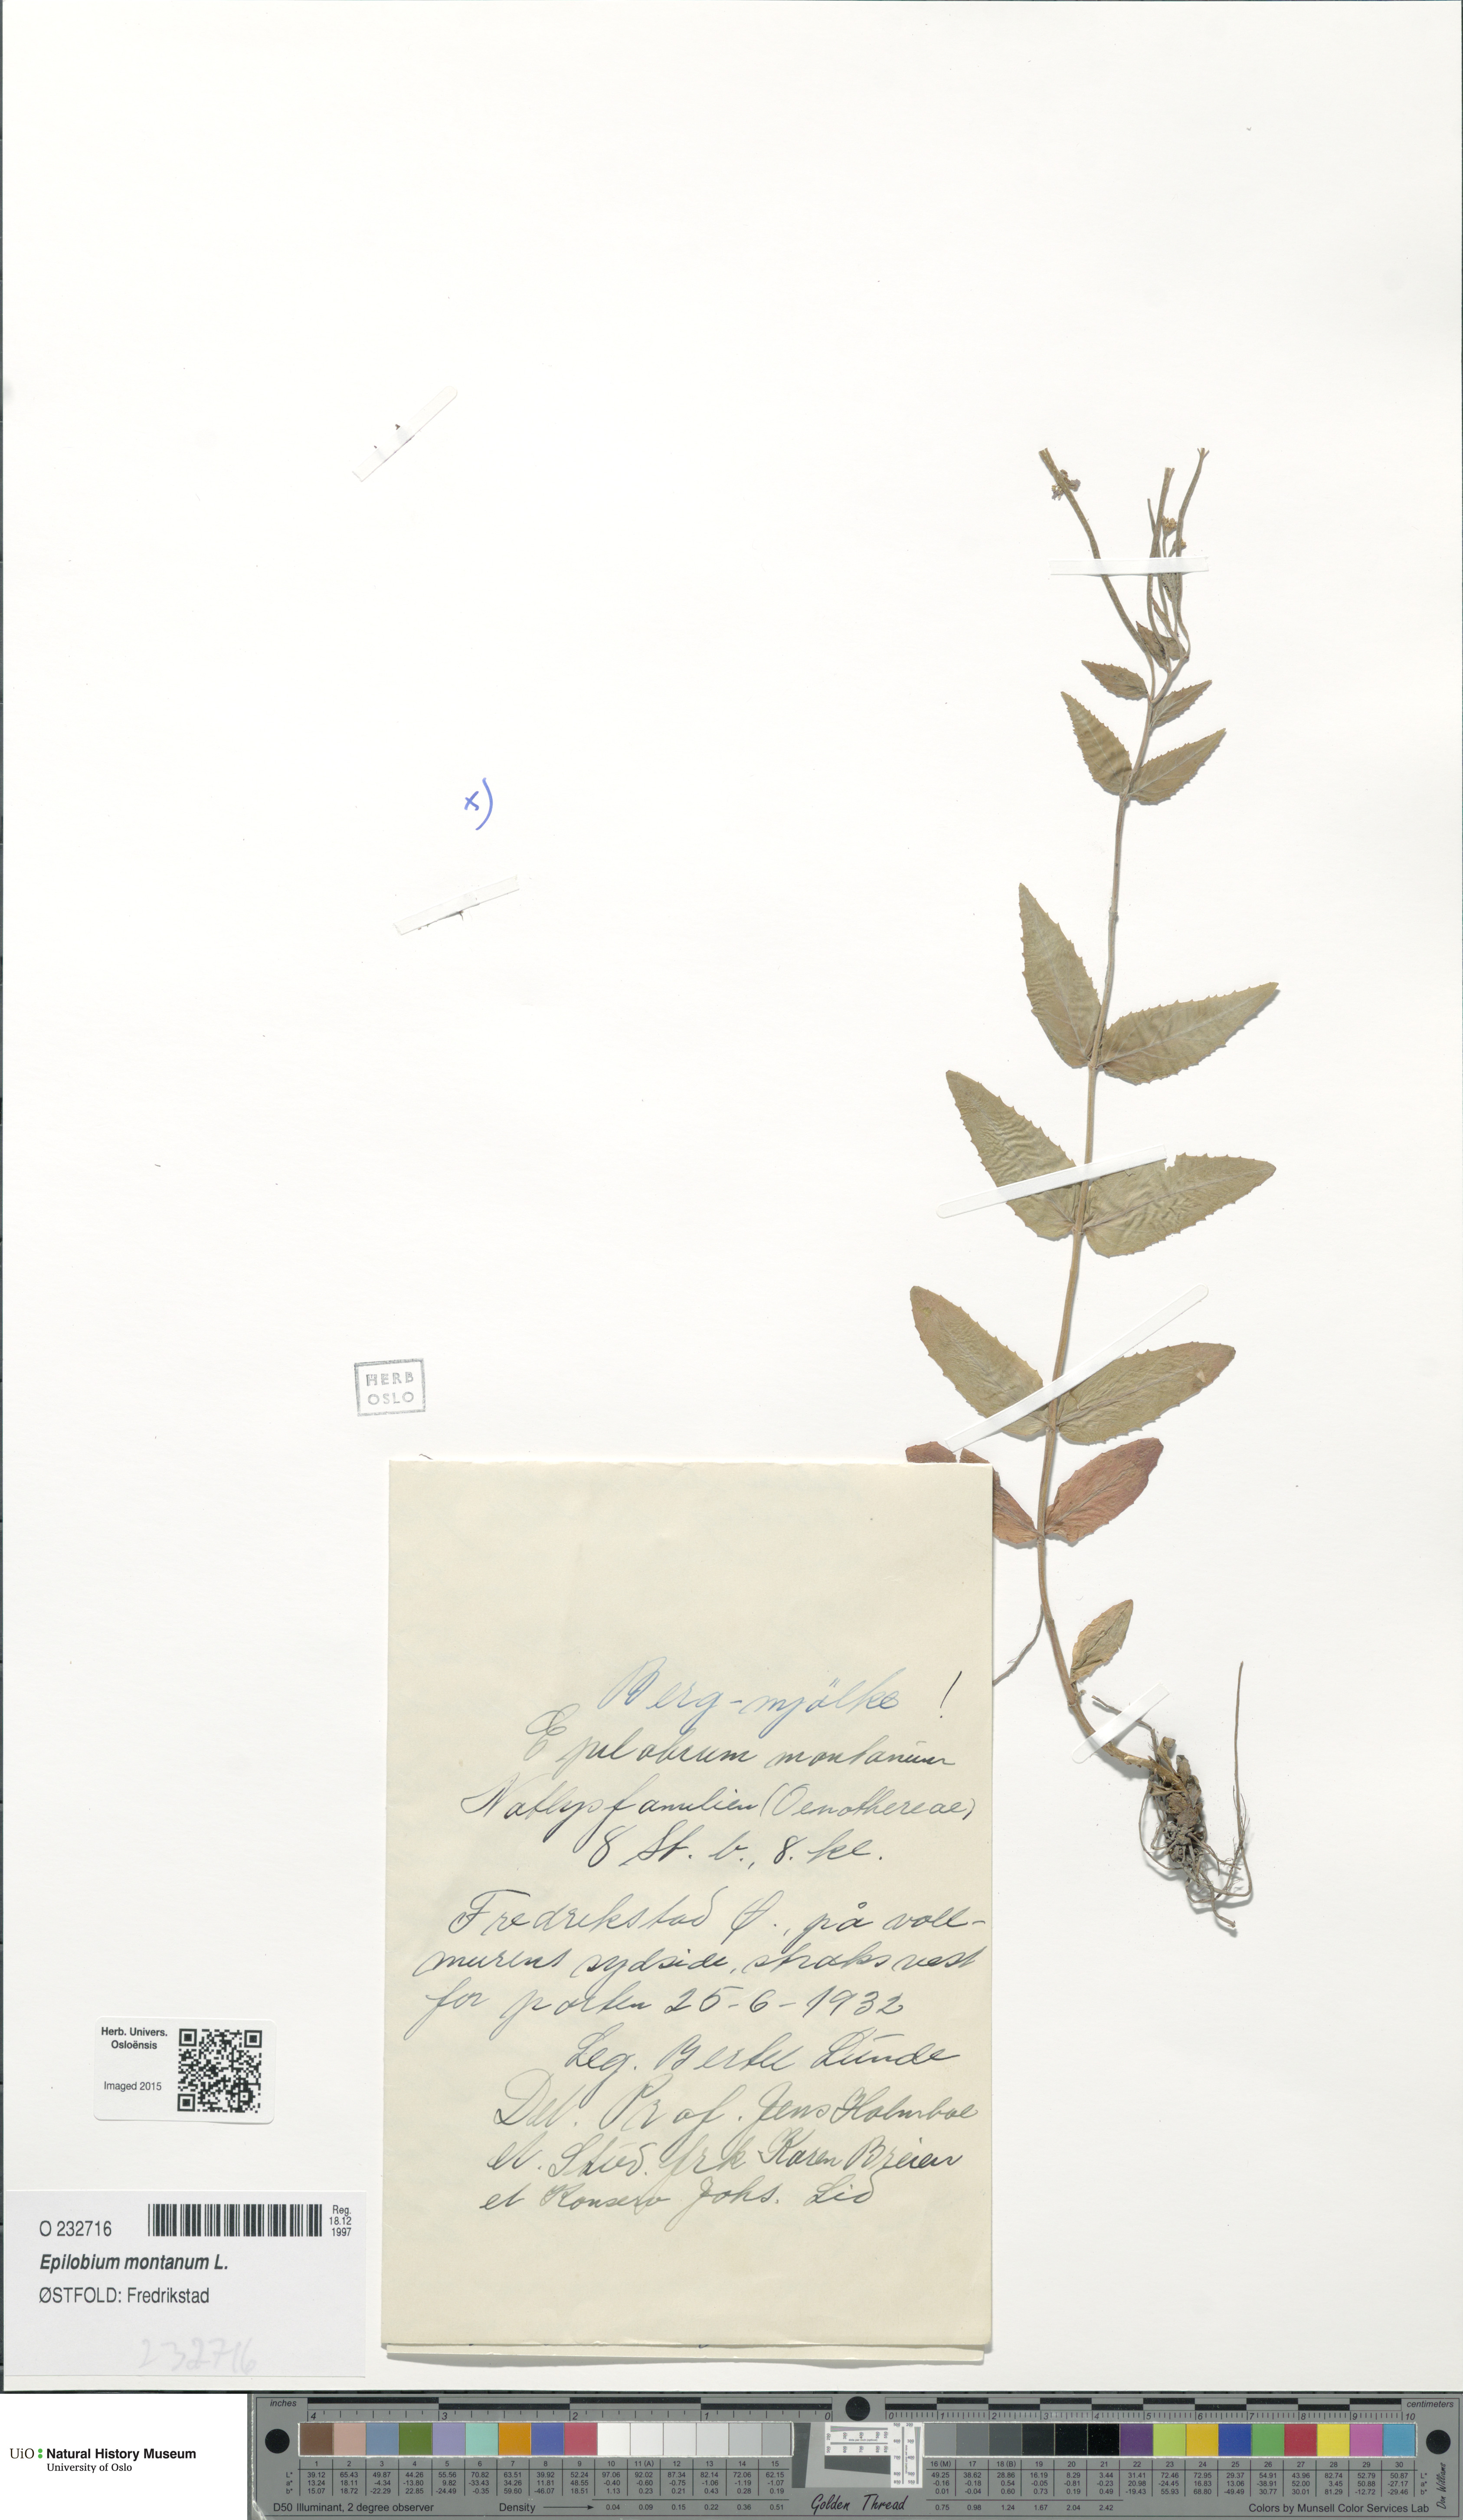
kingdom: Plantae
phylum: Tracheophyta
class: Magnoliopsida
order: Myrtales
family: Onagraceae
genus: Epilobium
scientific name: Epilobium montanum
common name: Broad-leaved willowherb
